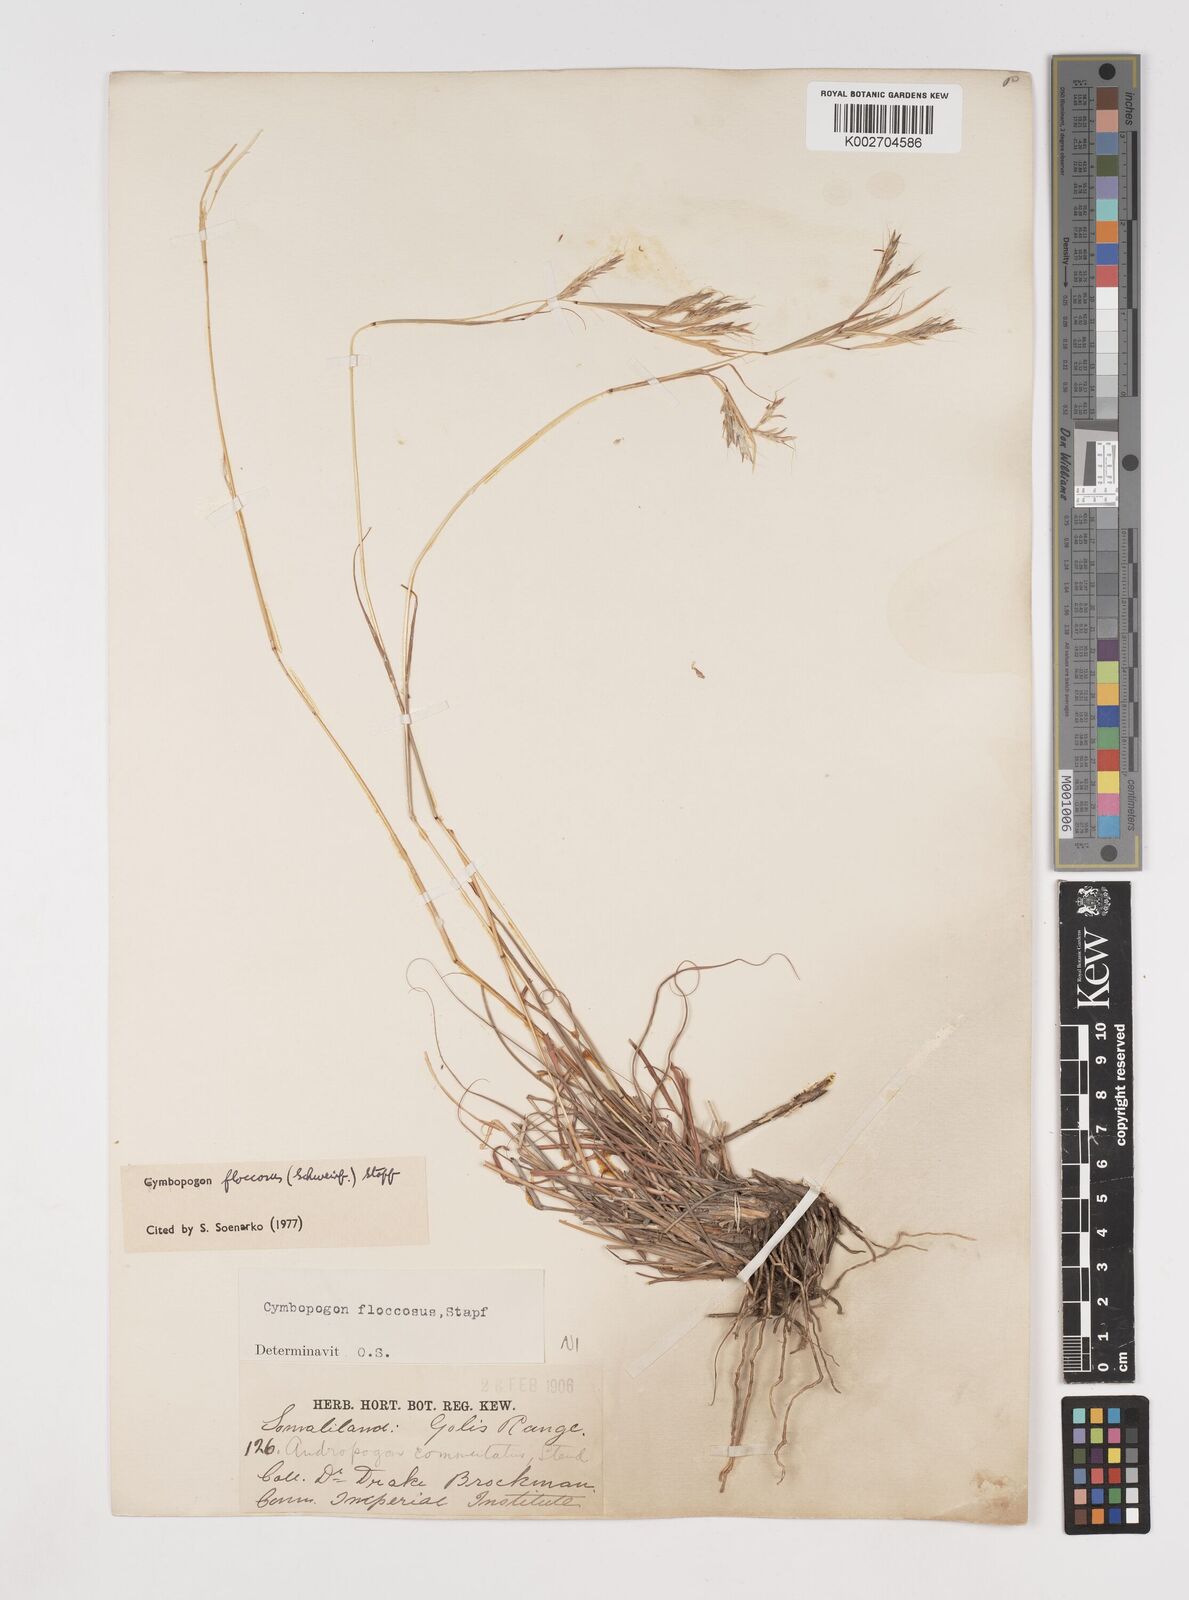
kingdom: Plantae
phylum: Tracheophyta
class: Liliopsida
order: Poales
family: Poaceae
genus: Cymbopogon
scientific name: Cymbopogon commutatus
